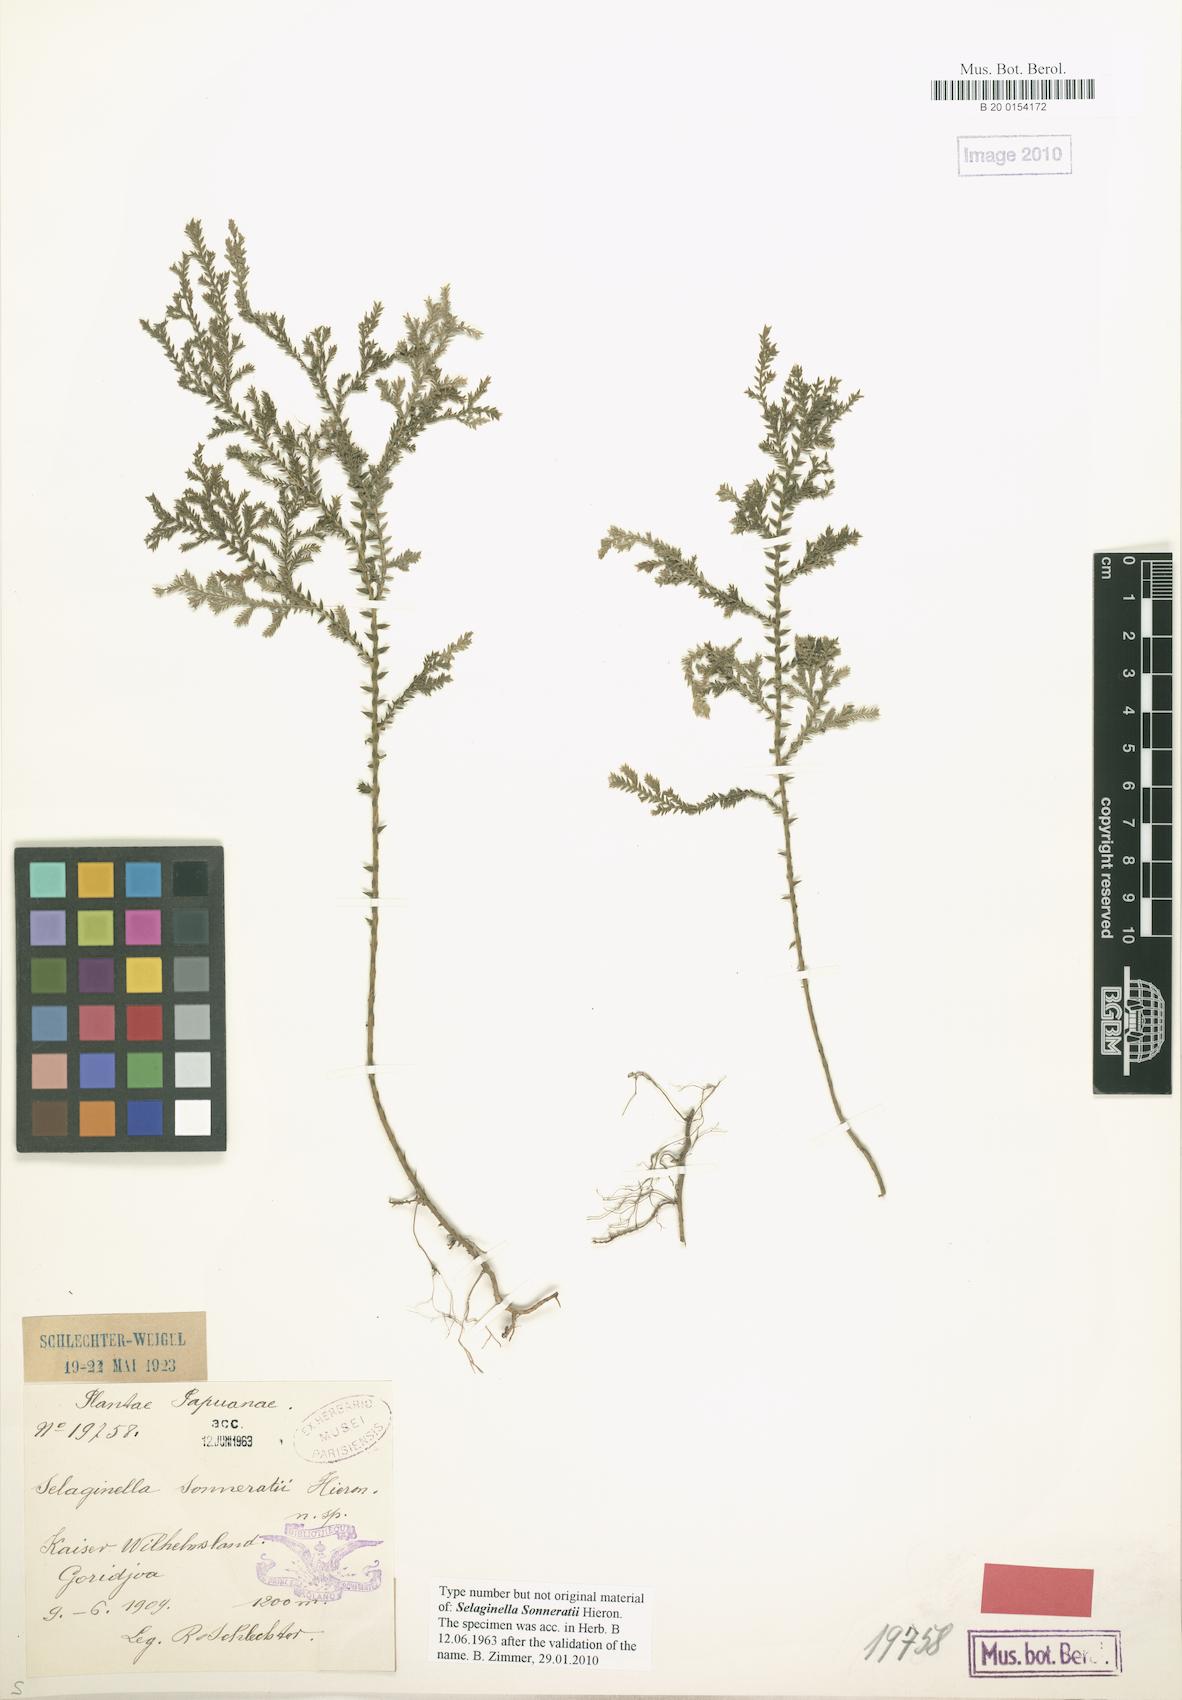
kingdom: Plantae
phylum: Tracheophyta
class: Lycopodiopsida
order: Selaginellales
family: Selaginellaceae
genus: Selaginella
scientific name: Selaginella sonneratii
